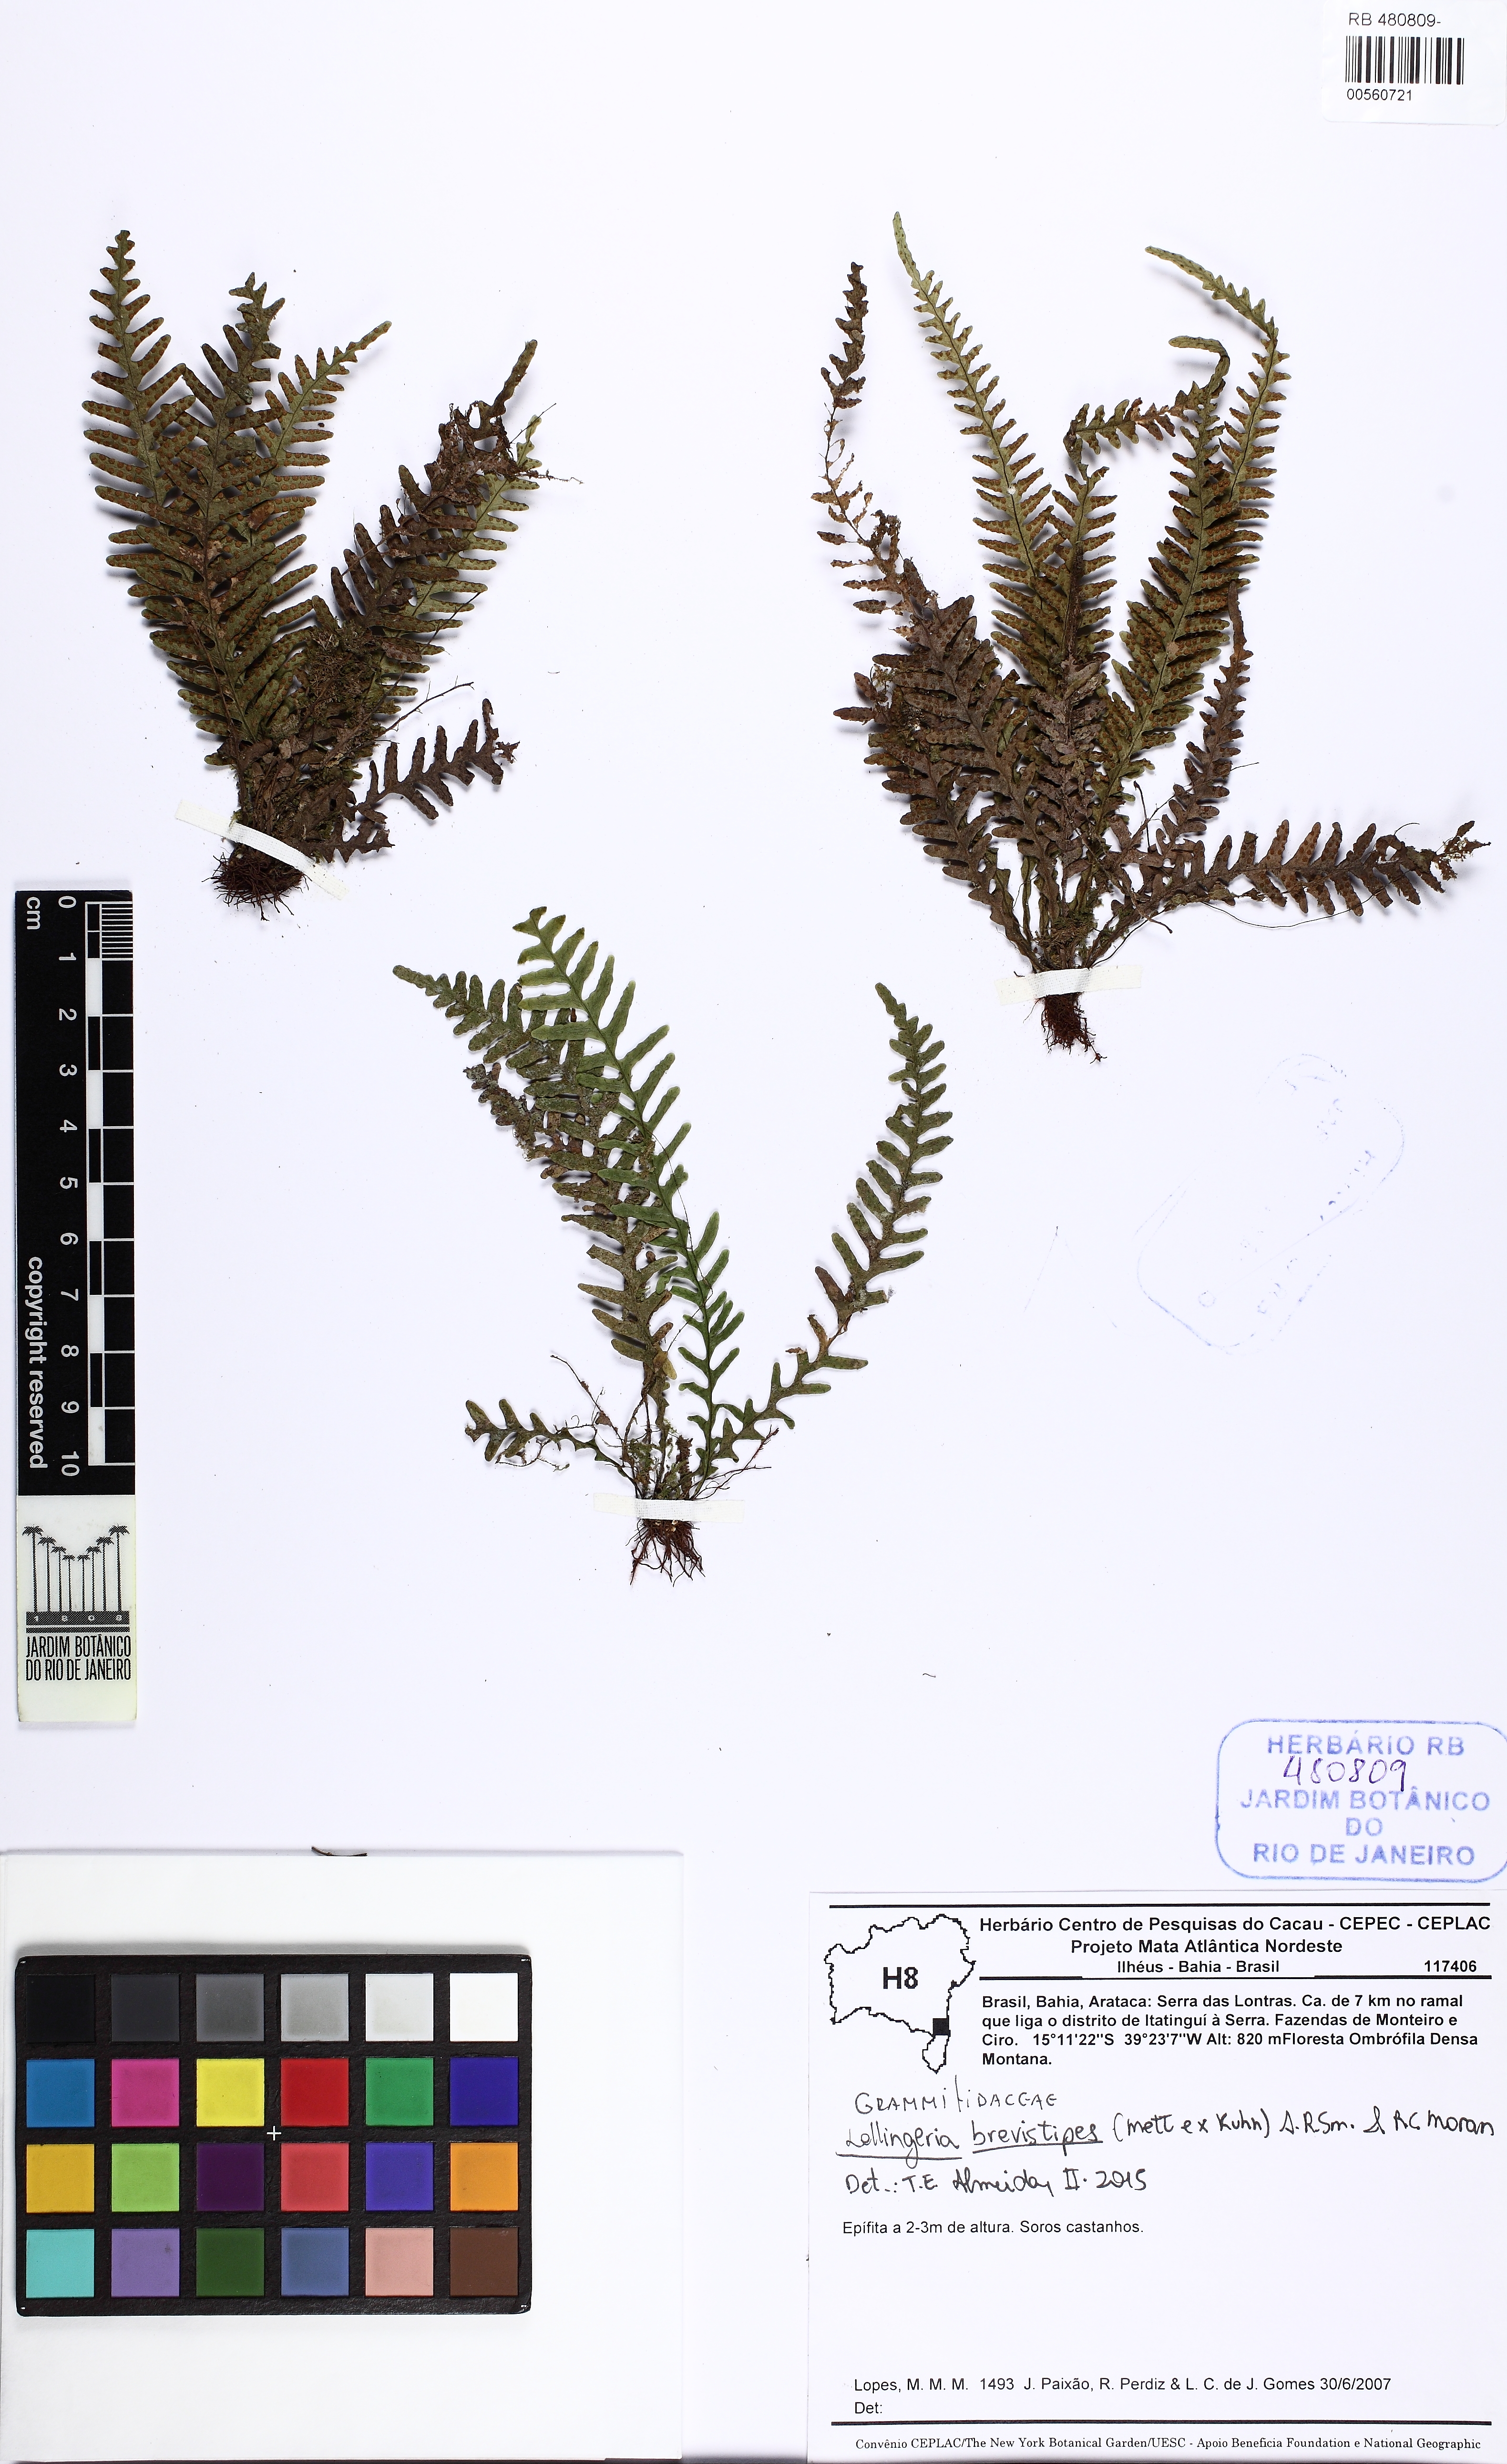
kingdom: Plantae
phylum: Tracheophyta
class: Polypodiopsida
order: Polypodiales
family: Polypodiaceae
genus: Lellingeria
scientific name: Lellingeria brevistipes
